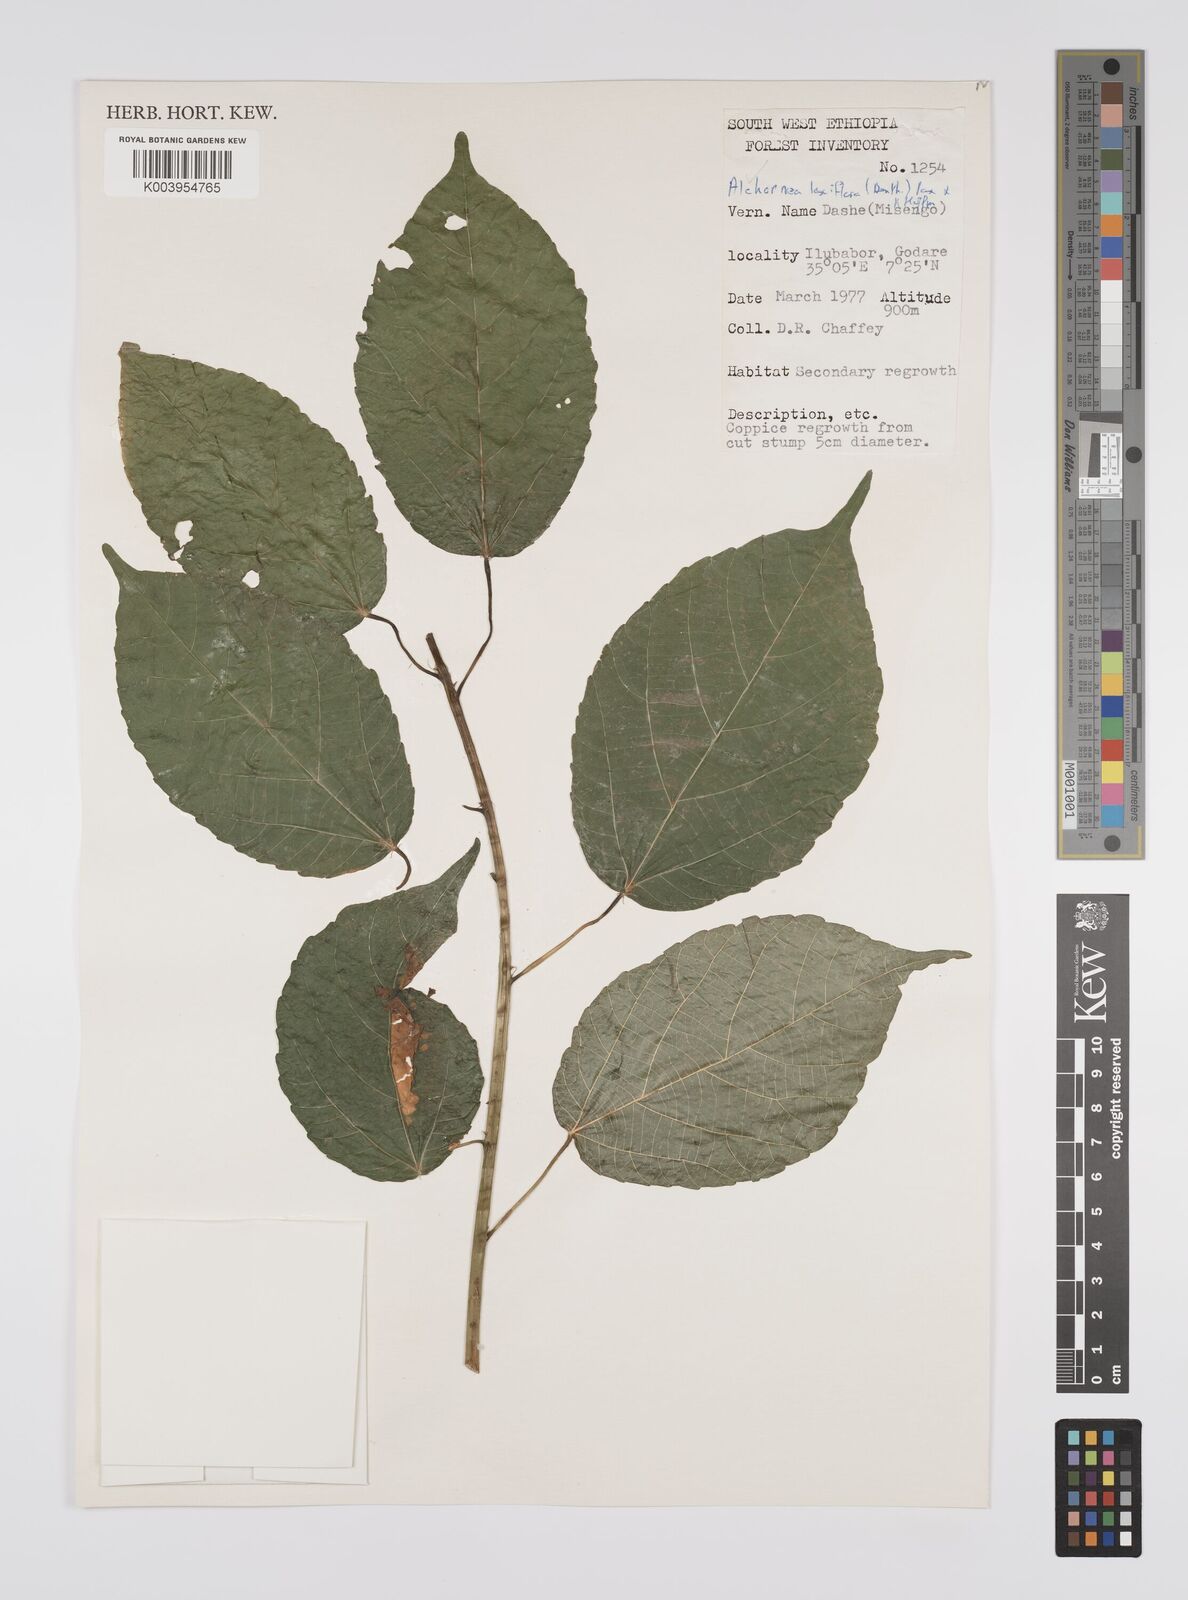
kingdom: Plantae
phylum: Tracheophyta
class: Magnoliopsida
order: Malpighiales
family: Euphorbiaceae
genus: Alchornea
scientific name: Alchornea laxiflora
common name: Lowveld bead-string
